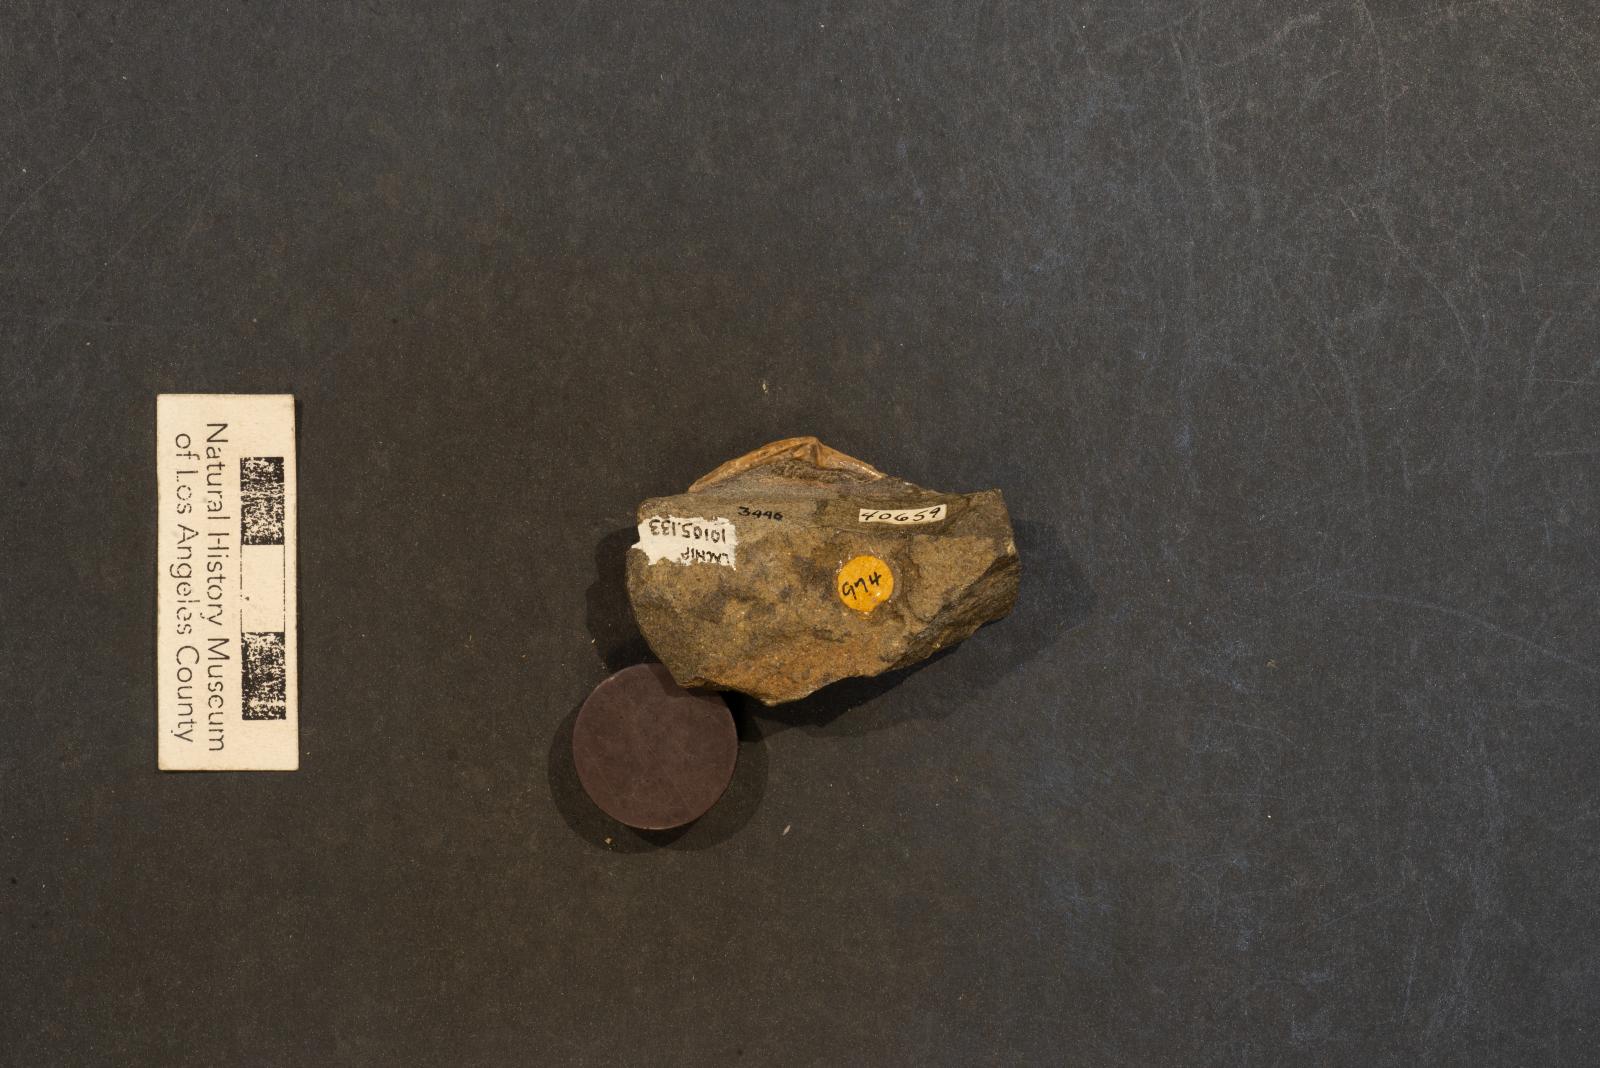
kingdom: Animalia
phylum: Mollusca
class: Bivalvia
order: Venerida
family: Veneridae
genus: Legumen
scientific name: Legumen ooides
